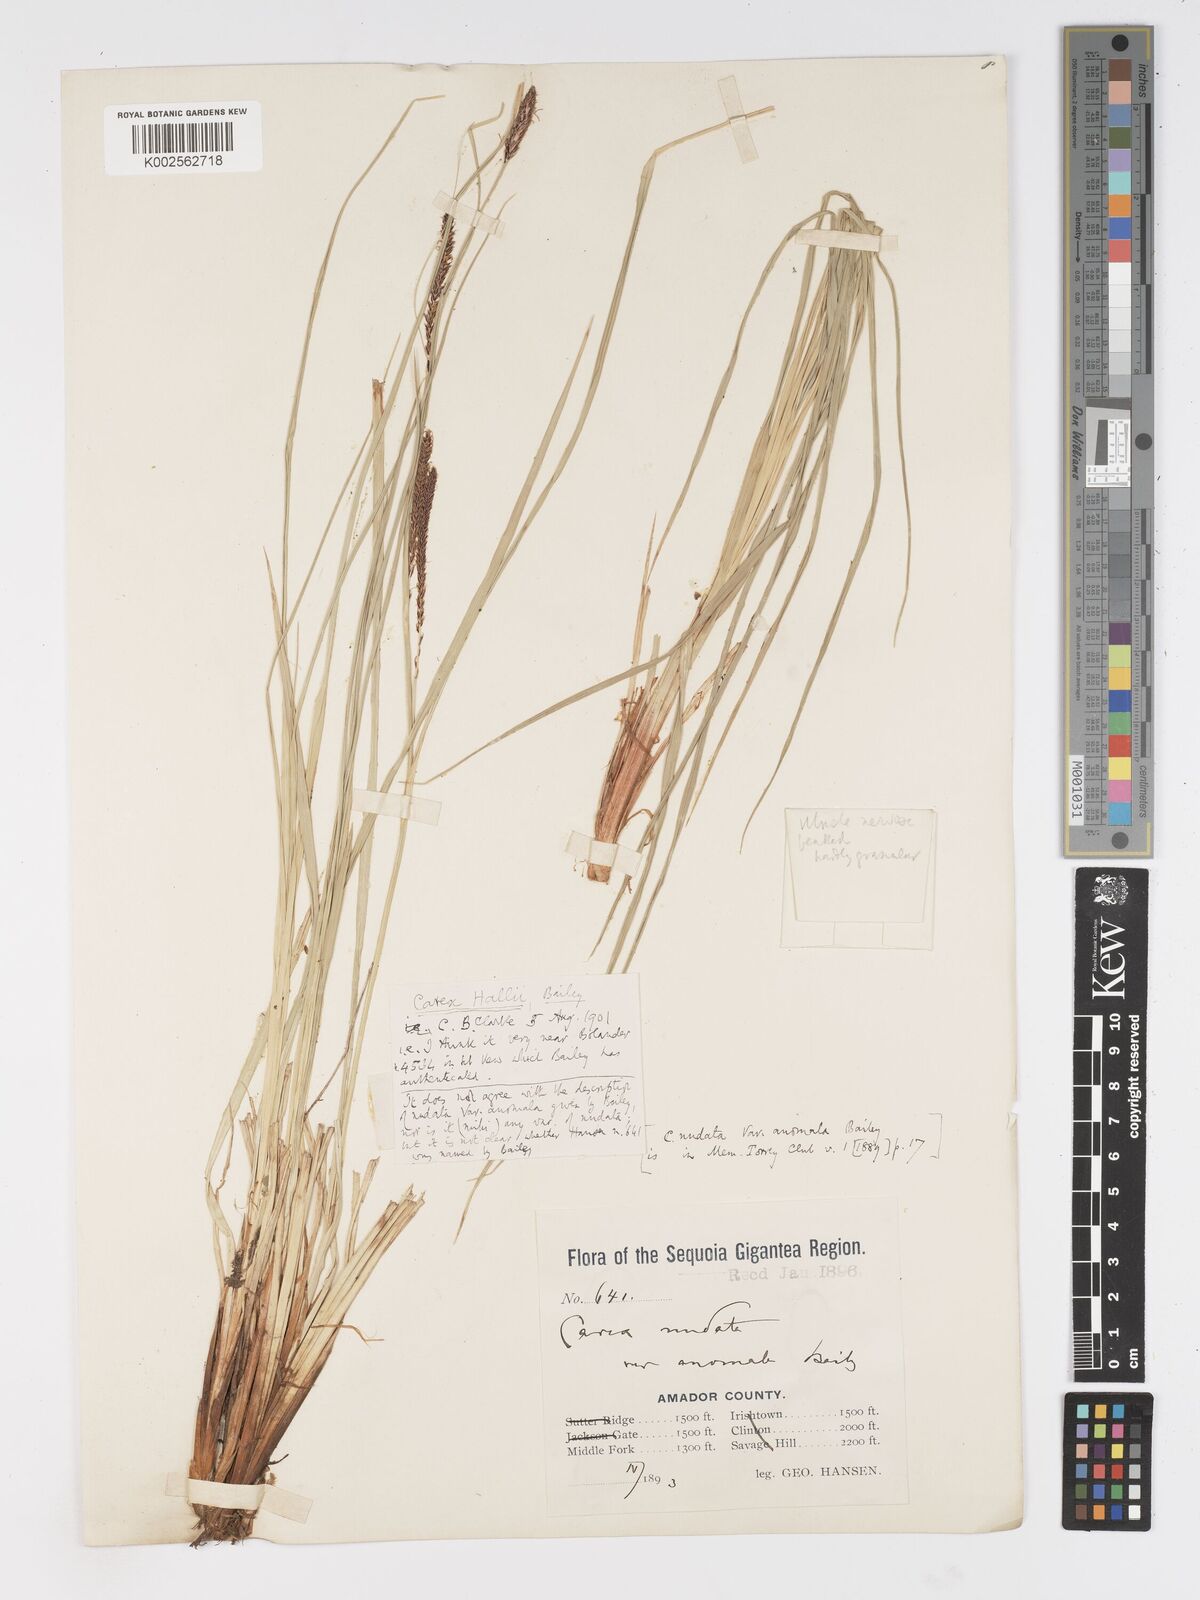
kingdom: Plantae
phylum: Tracheophyta
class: Liliopsida
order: Poales
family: Cyperaceae
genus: Carex
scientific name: Carex nudata
